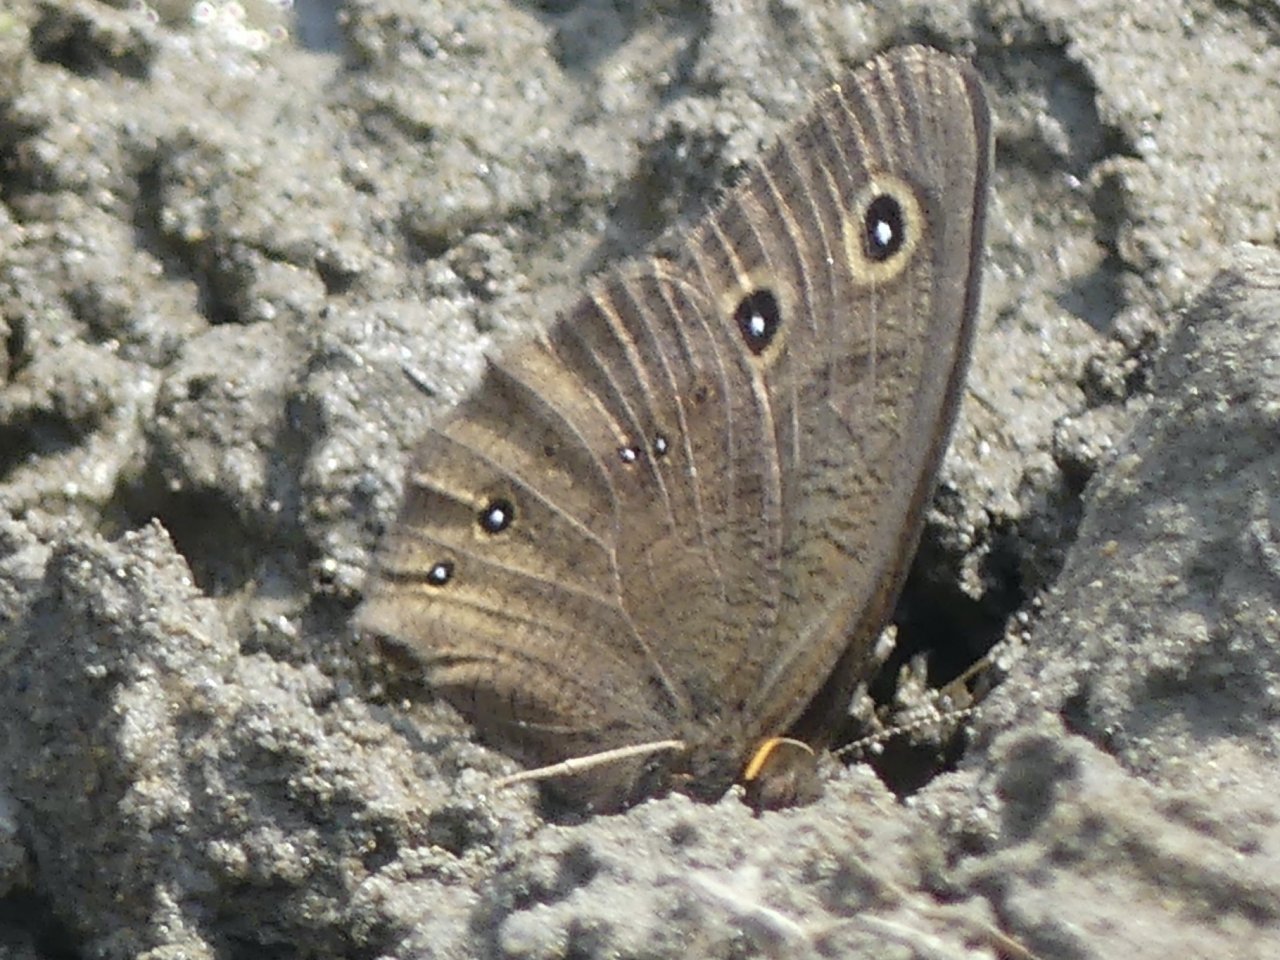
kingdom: Animalia
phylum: Arthropoda
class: Insecta
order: Lepidoptera
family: Nymphalidae
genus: Cercyonis
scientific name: Cercyonis pegala
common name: Common Wood-Nymph
